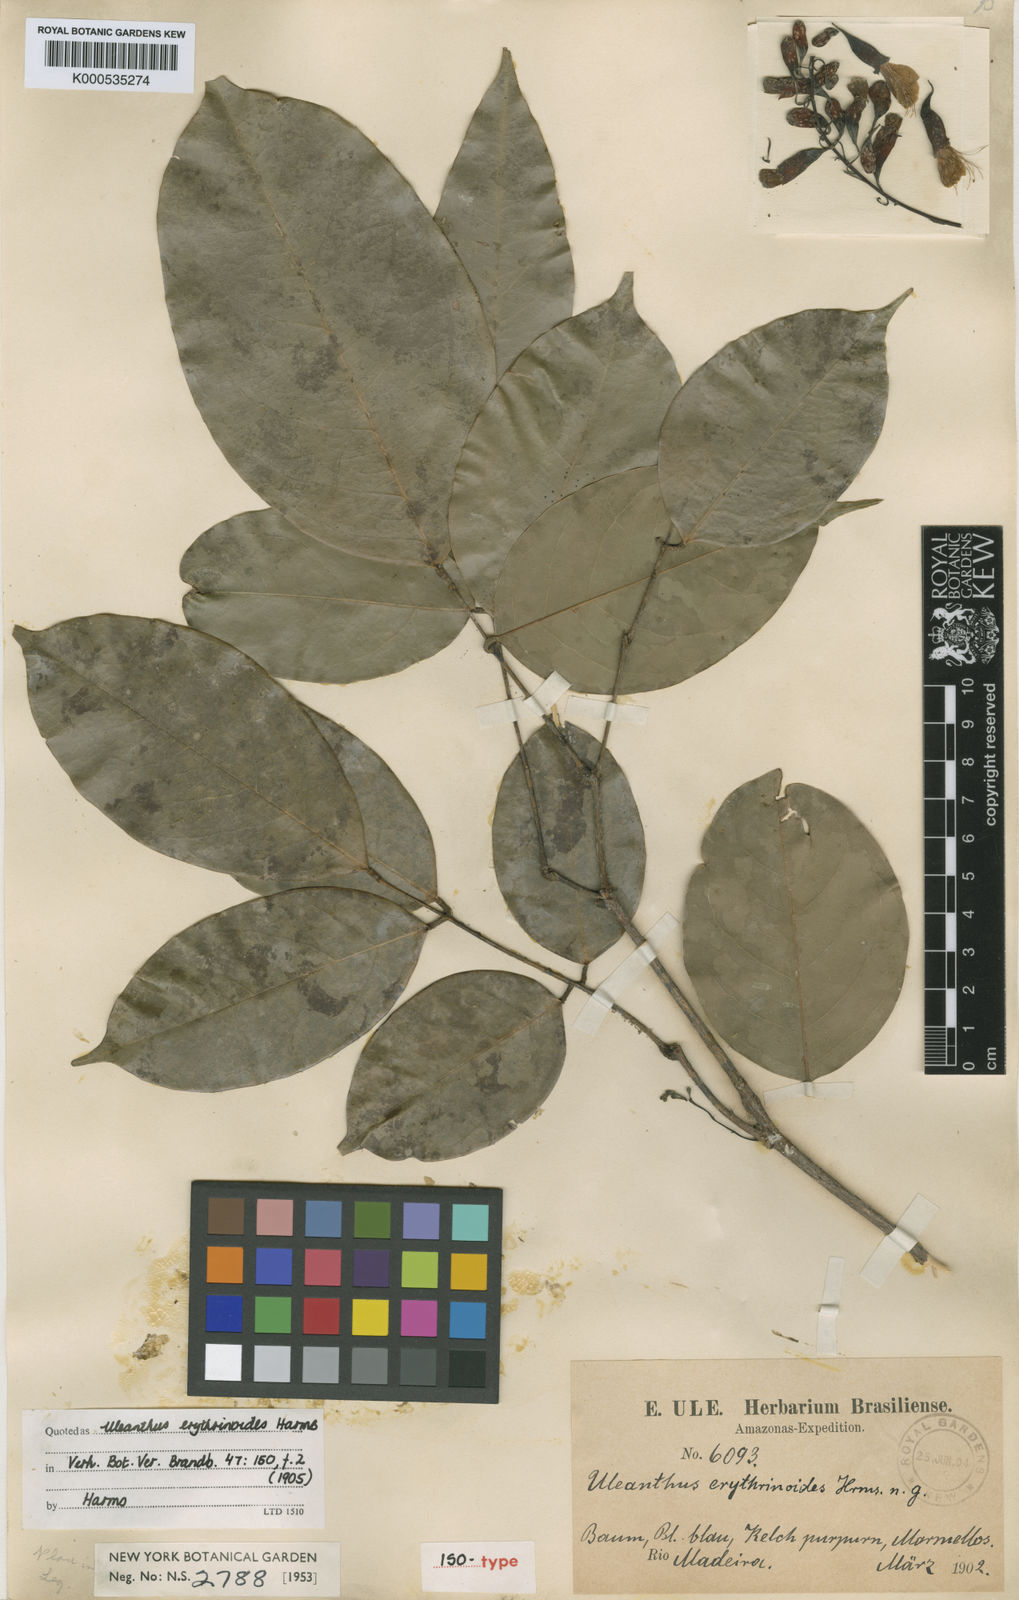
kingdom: Plantae
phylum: Tracheophyta
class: Magnoliopsida
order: Fabales
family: Fabaceae
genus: Uleanthus
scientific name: Uleanthus erythrinoides
